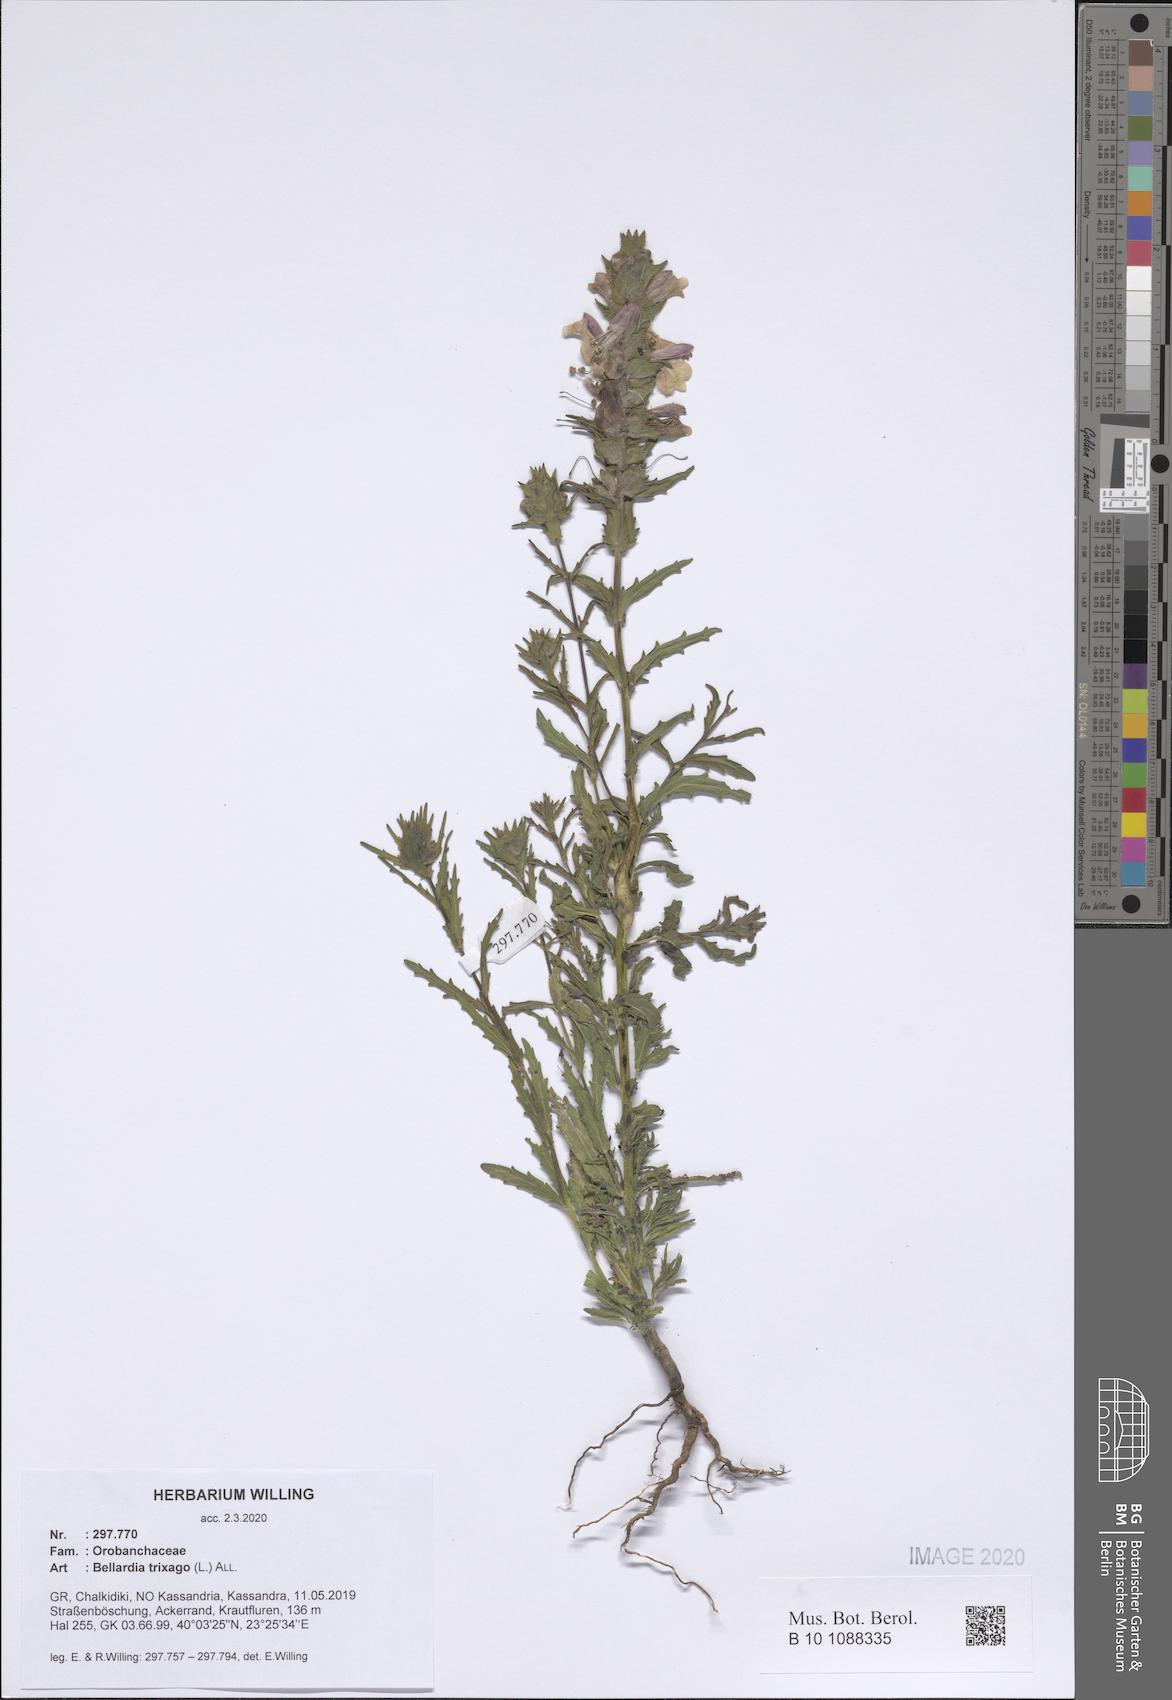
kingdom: Plantae
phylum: Tracheophyta
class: Magnoliopsida
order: Lamiales
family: Orobanchaceae
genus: Bellardia
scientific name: Bellardia trixago
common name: Mediterranean lineseed
